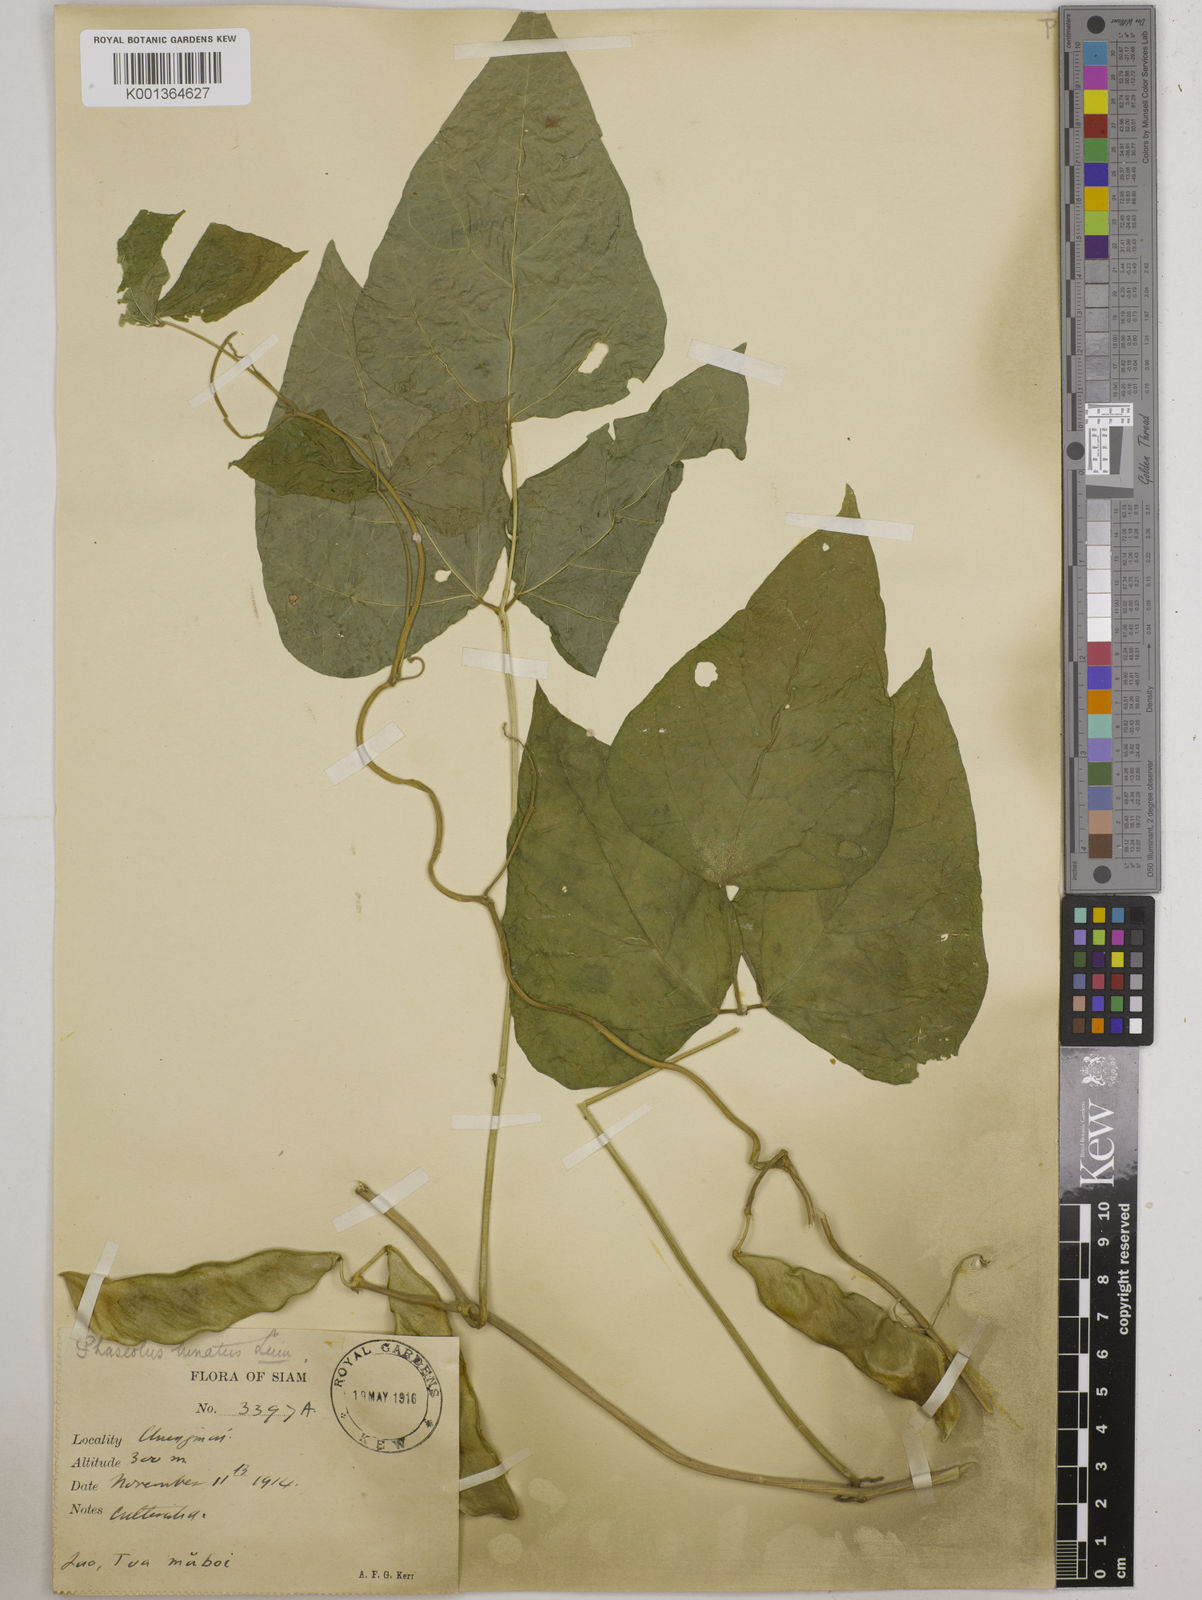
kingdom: Plantae
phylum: Tracheophyta
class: Magnoliopsida
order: Fabales
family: Fabaceae
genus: Phaseolus
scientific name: Phaseolus lunatus
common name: Sieva bean
